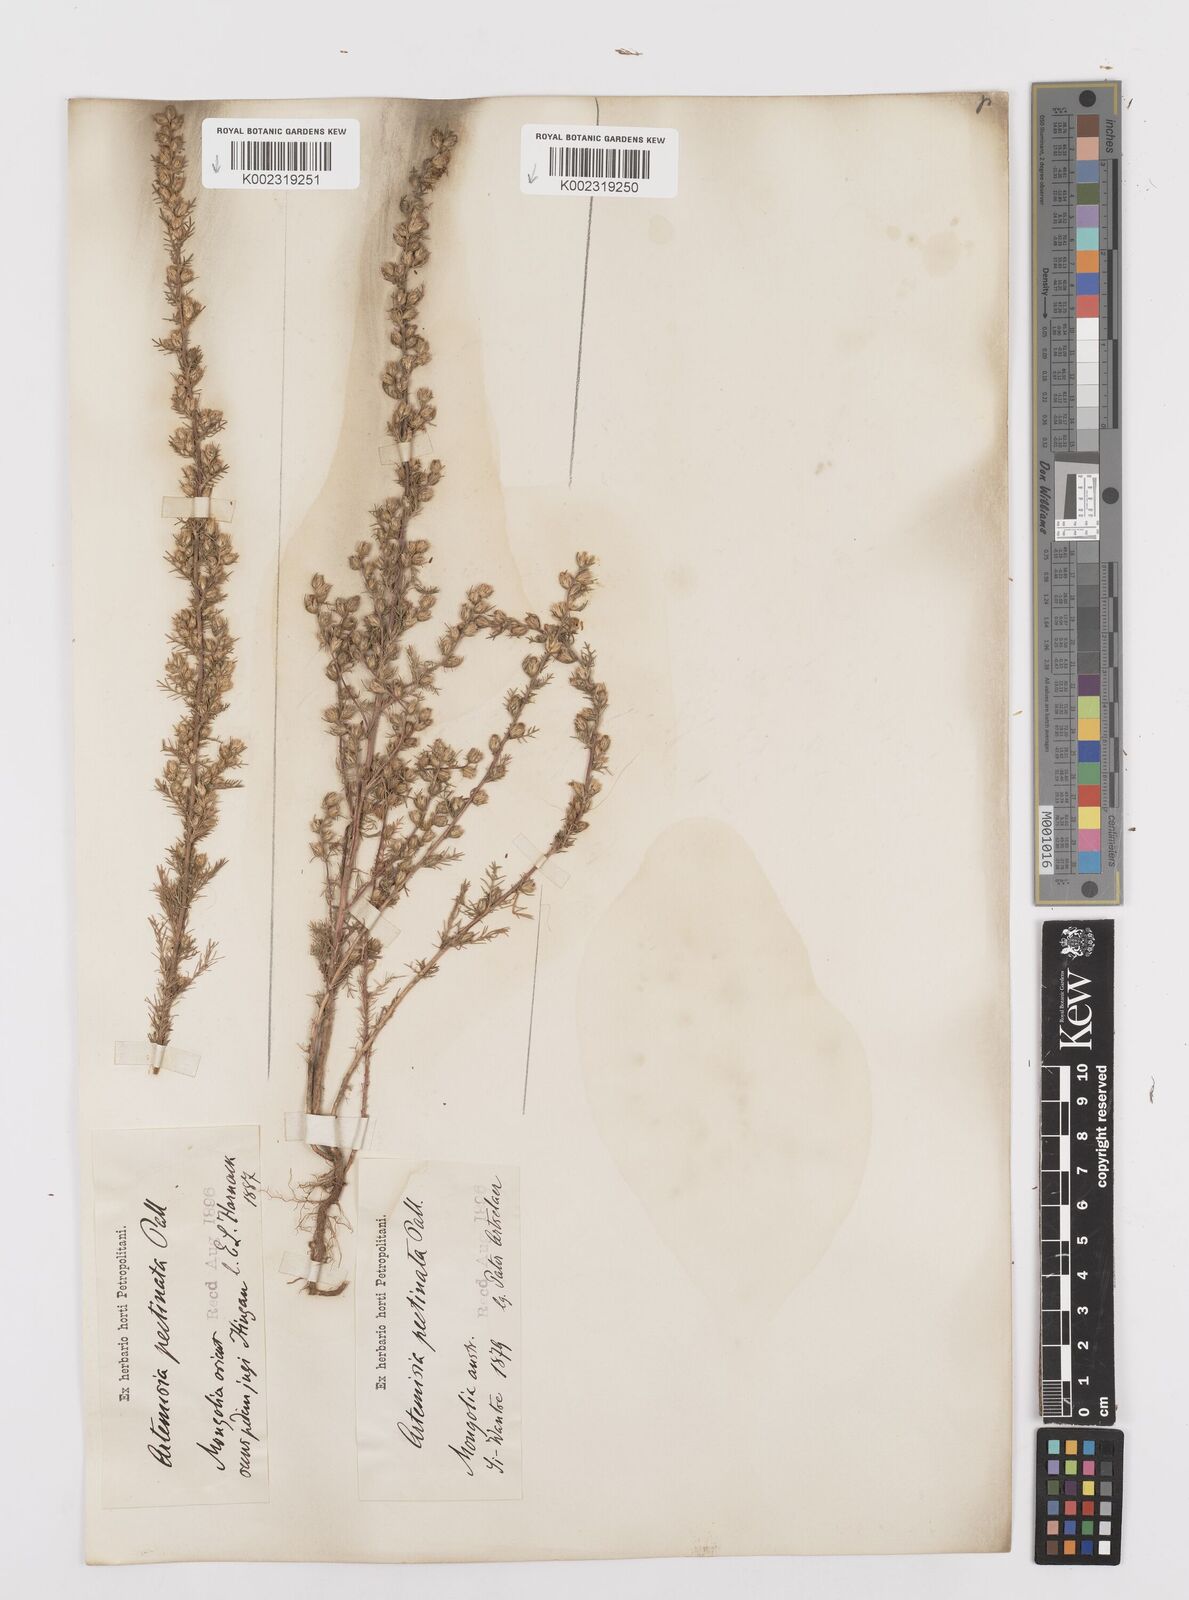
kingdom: Plantae
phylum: Tracheophyta
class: Magnoliopsida
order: Asterales
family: Asteraceae
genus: Neopallasia
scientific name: Neopallasia pectinata
